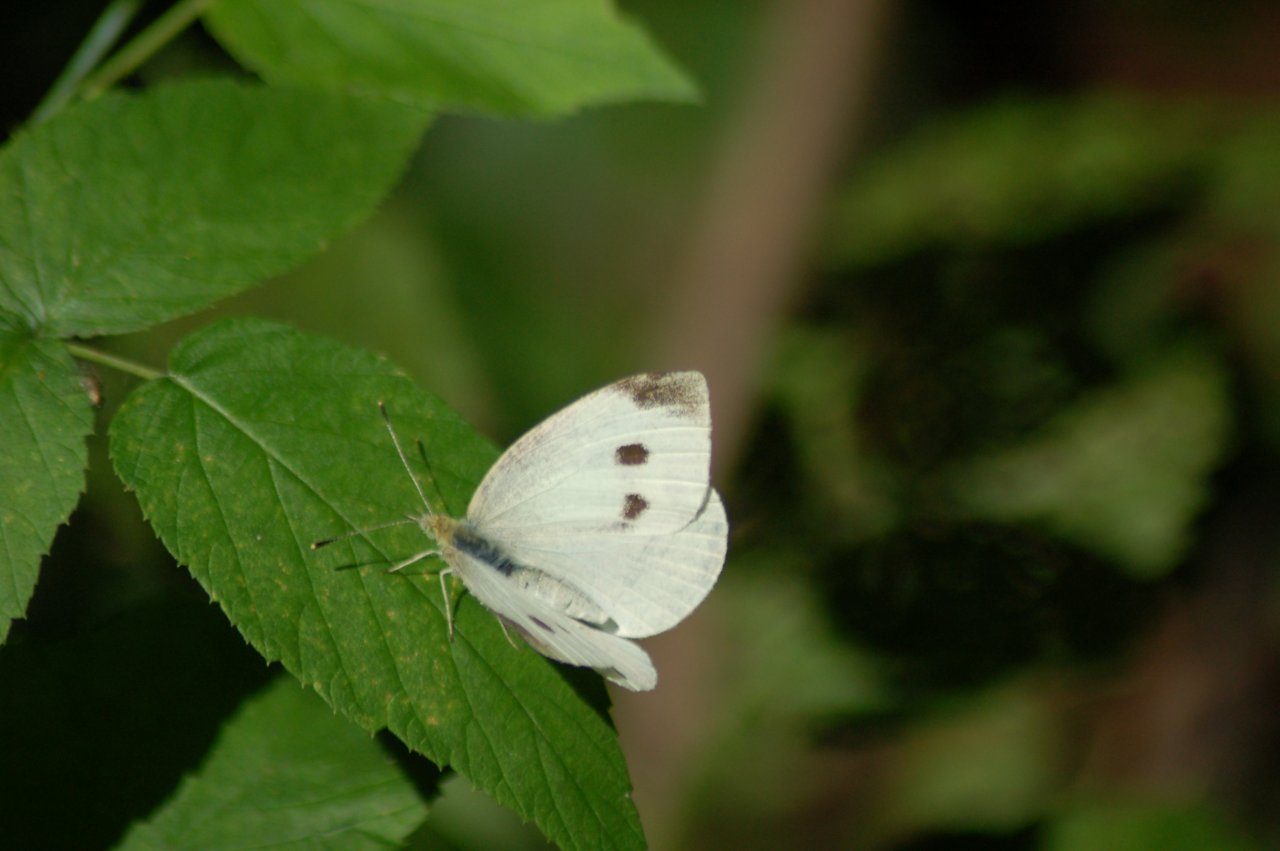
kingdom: Animalia
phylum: Arthropoda
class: Insecta
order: Lepidoptera
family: Pieridae
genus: Pieris
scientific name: Pieris rapae
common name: Cabbage White
